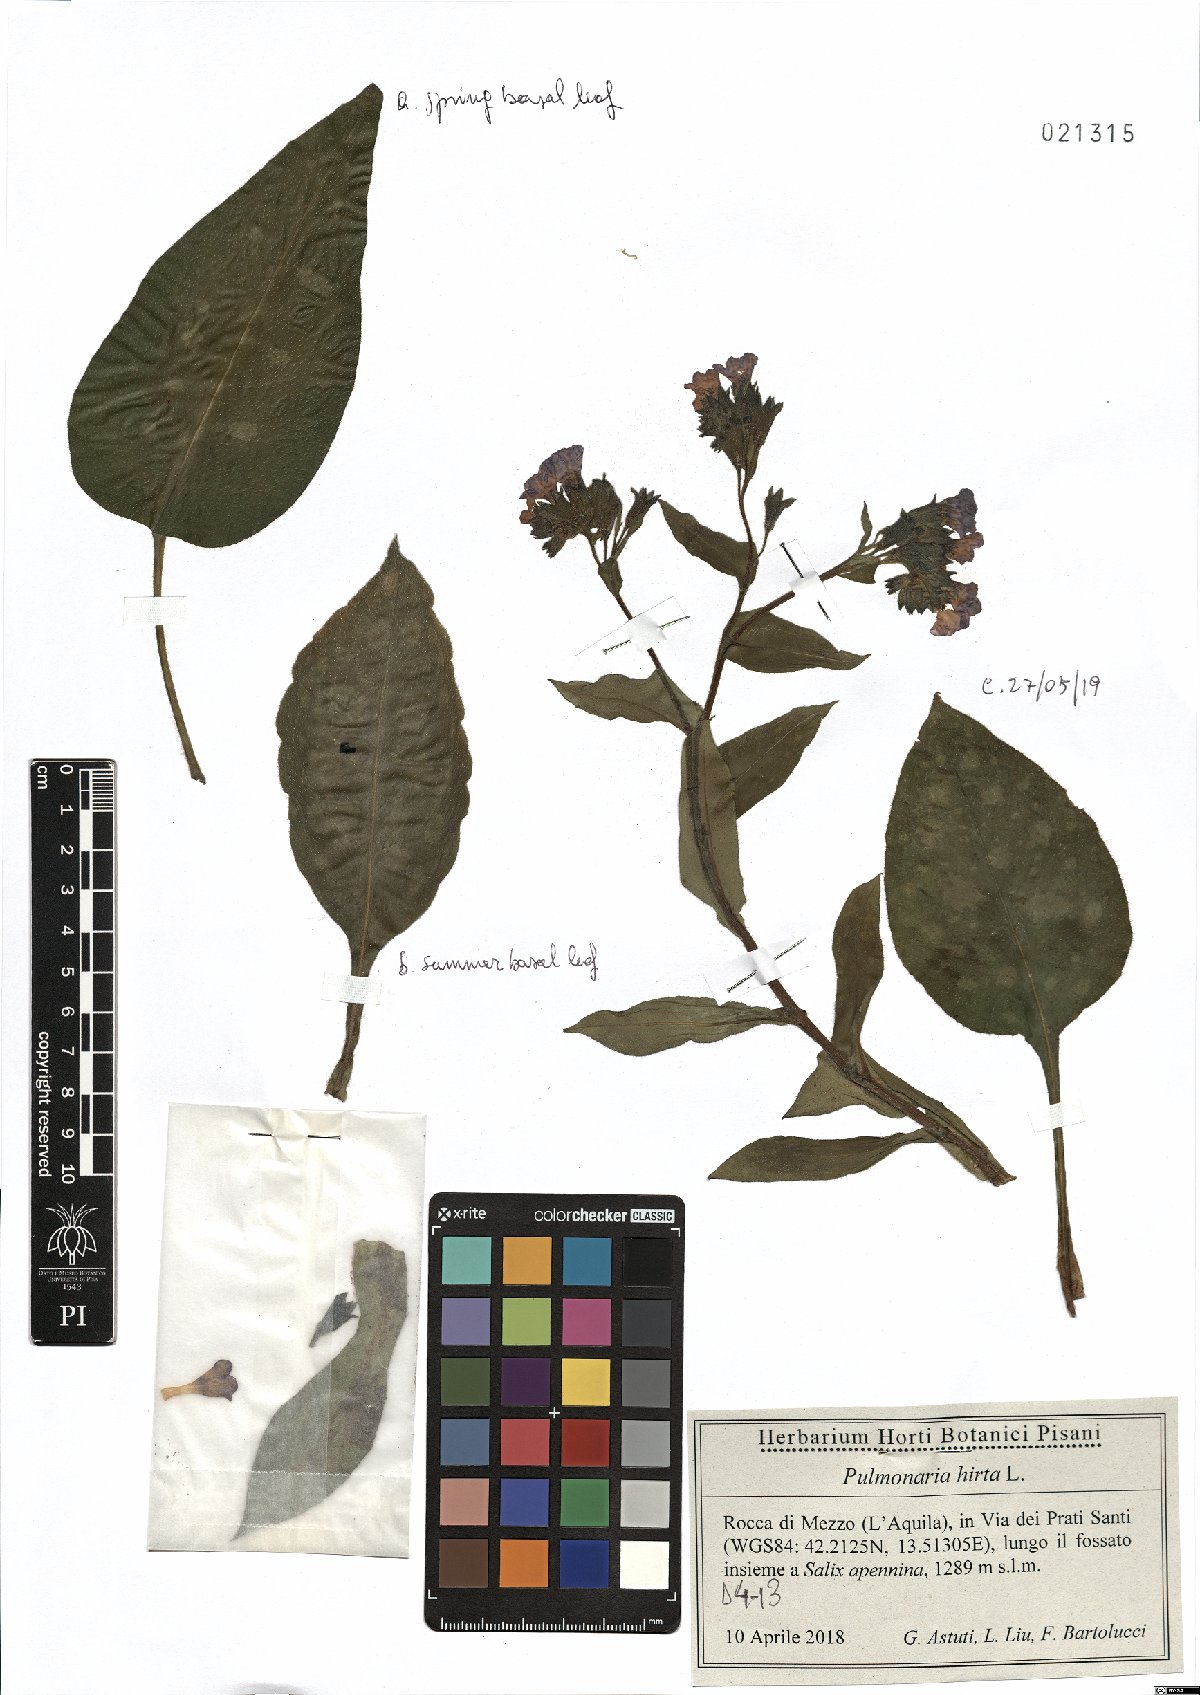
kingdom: Plantae
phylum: Tracheophyta
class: Magnoliopsida
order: Boraginales
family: Boraginaceae
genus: Pulmonaria
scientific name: Pulmonaria hirta
